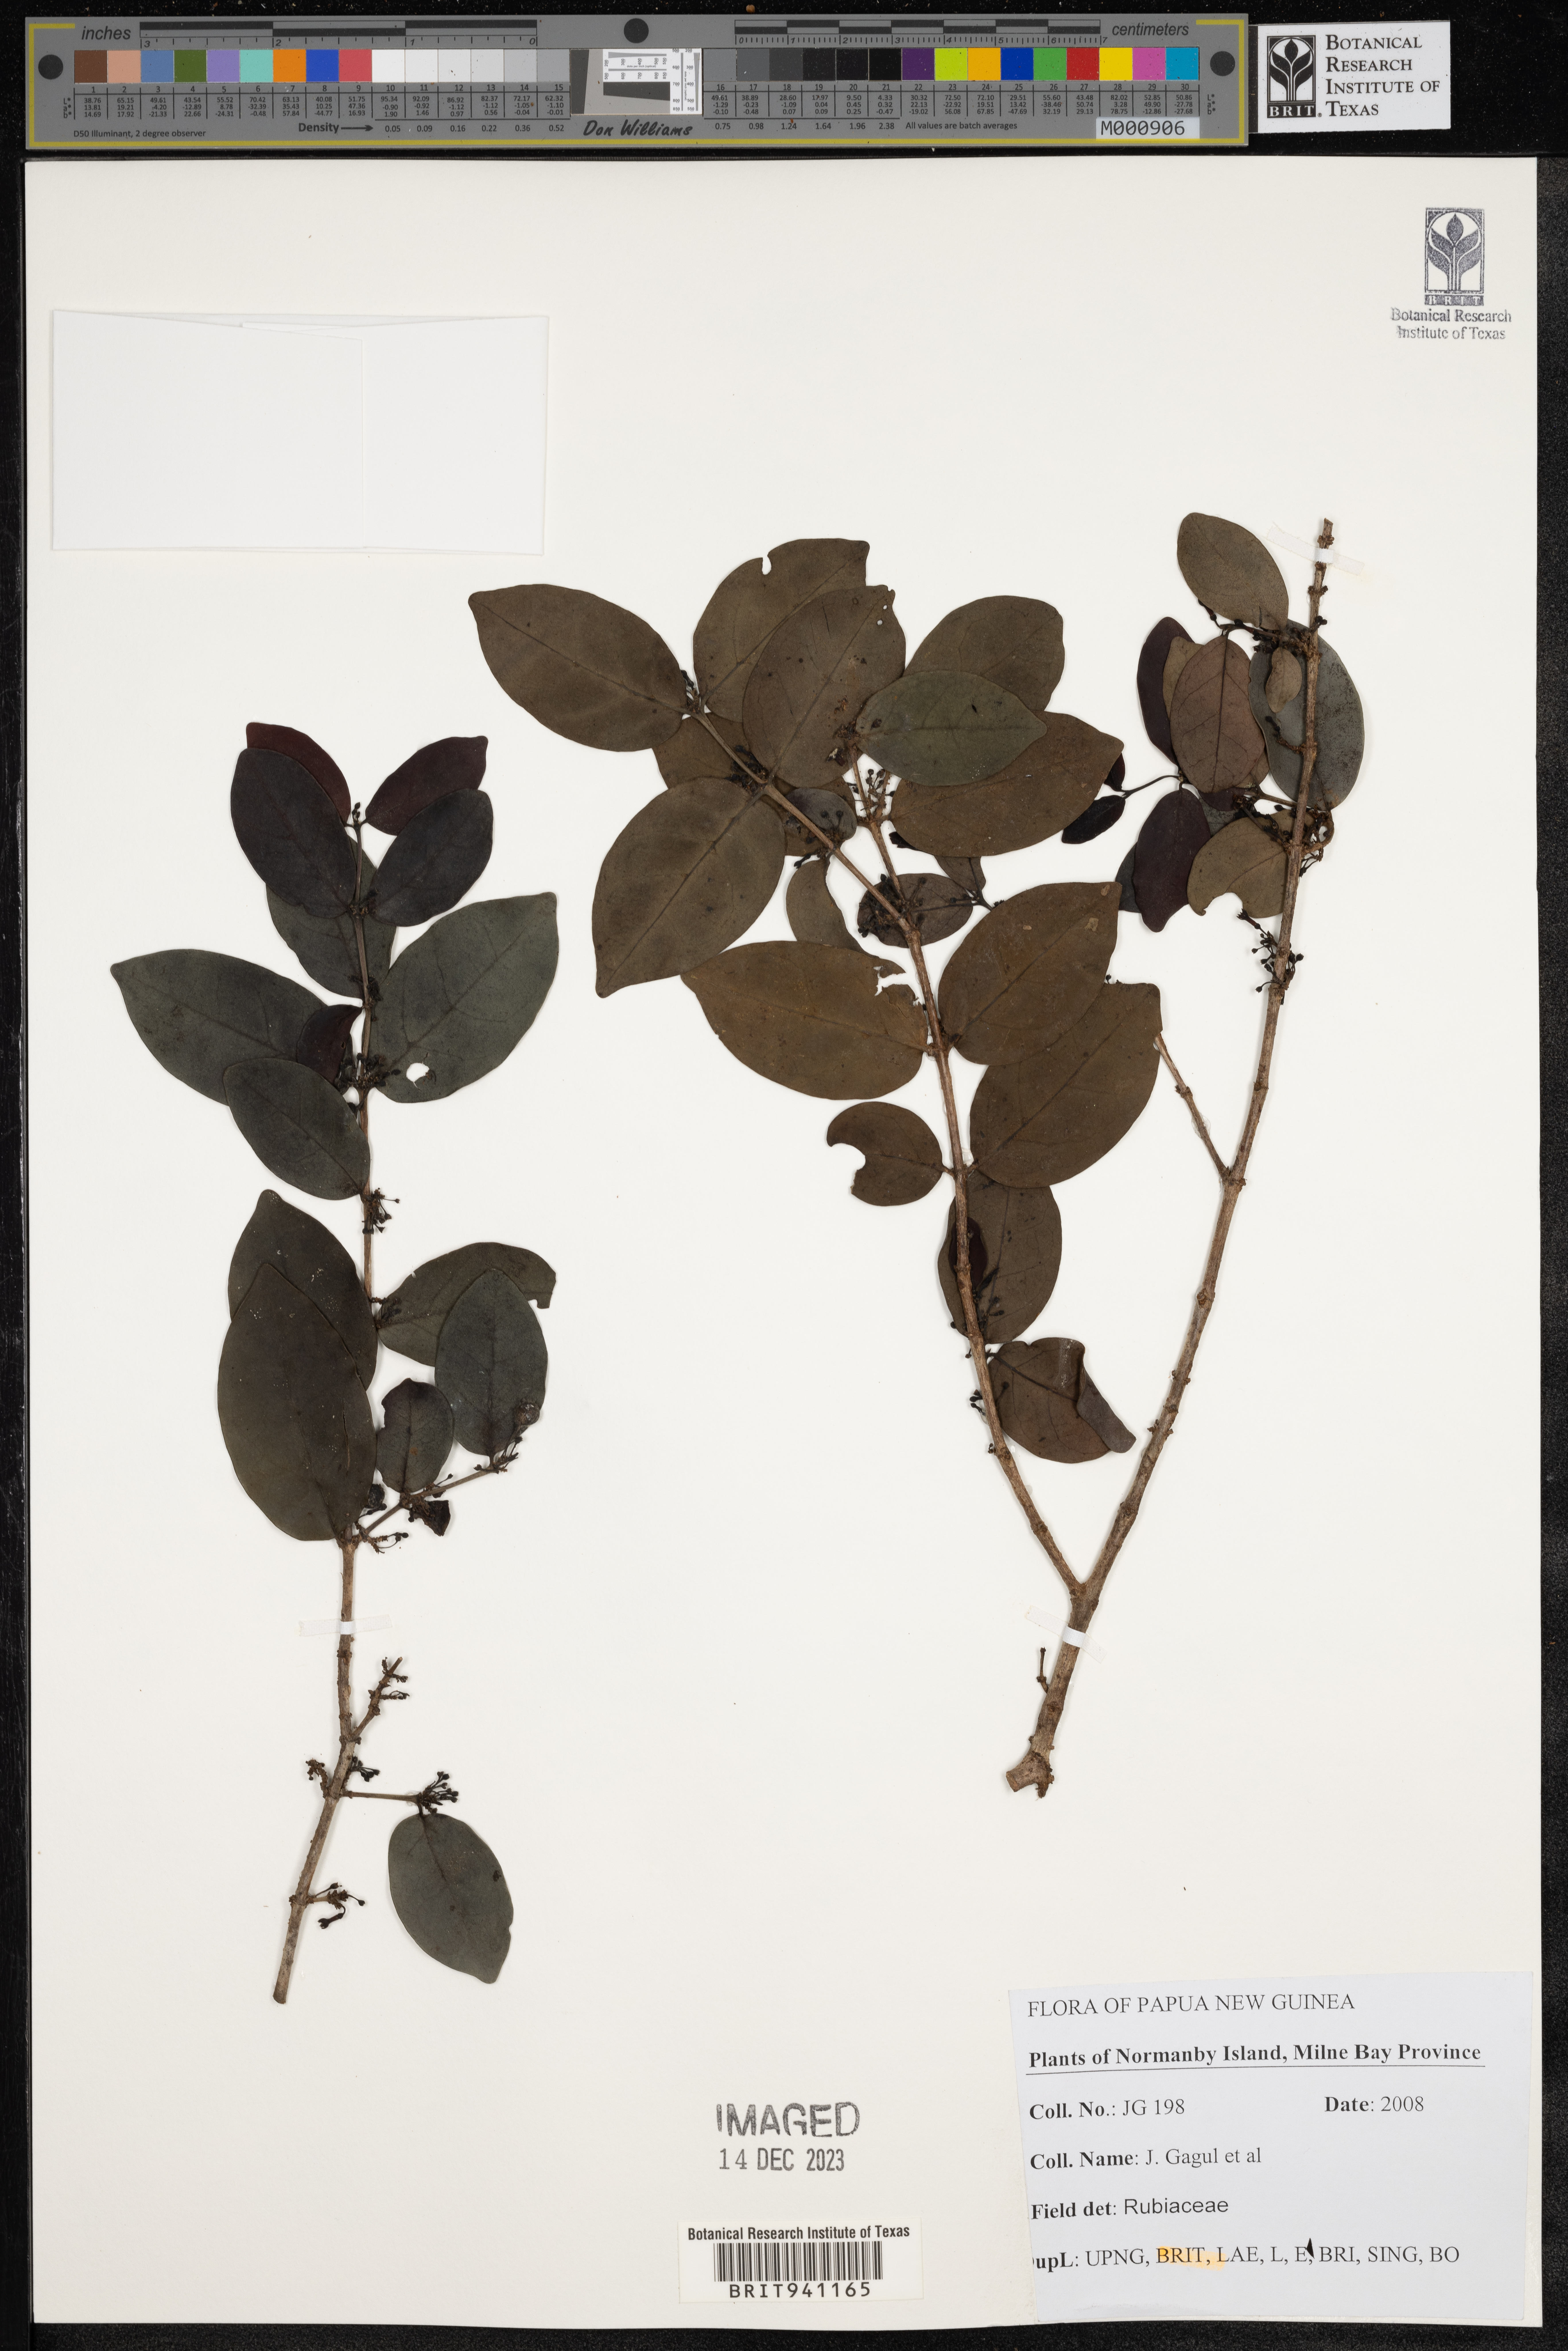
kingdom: Plantae
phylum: Tracheophyta
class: Magnoliopsida
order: Gentianales
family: Rubiaceae
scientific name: Rubiaceae
